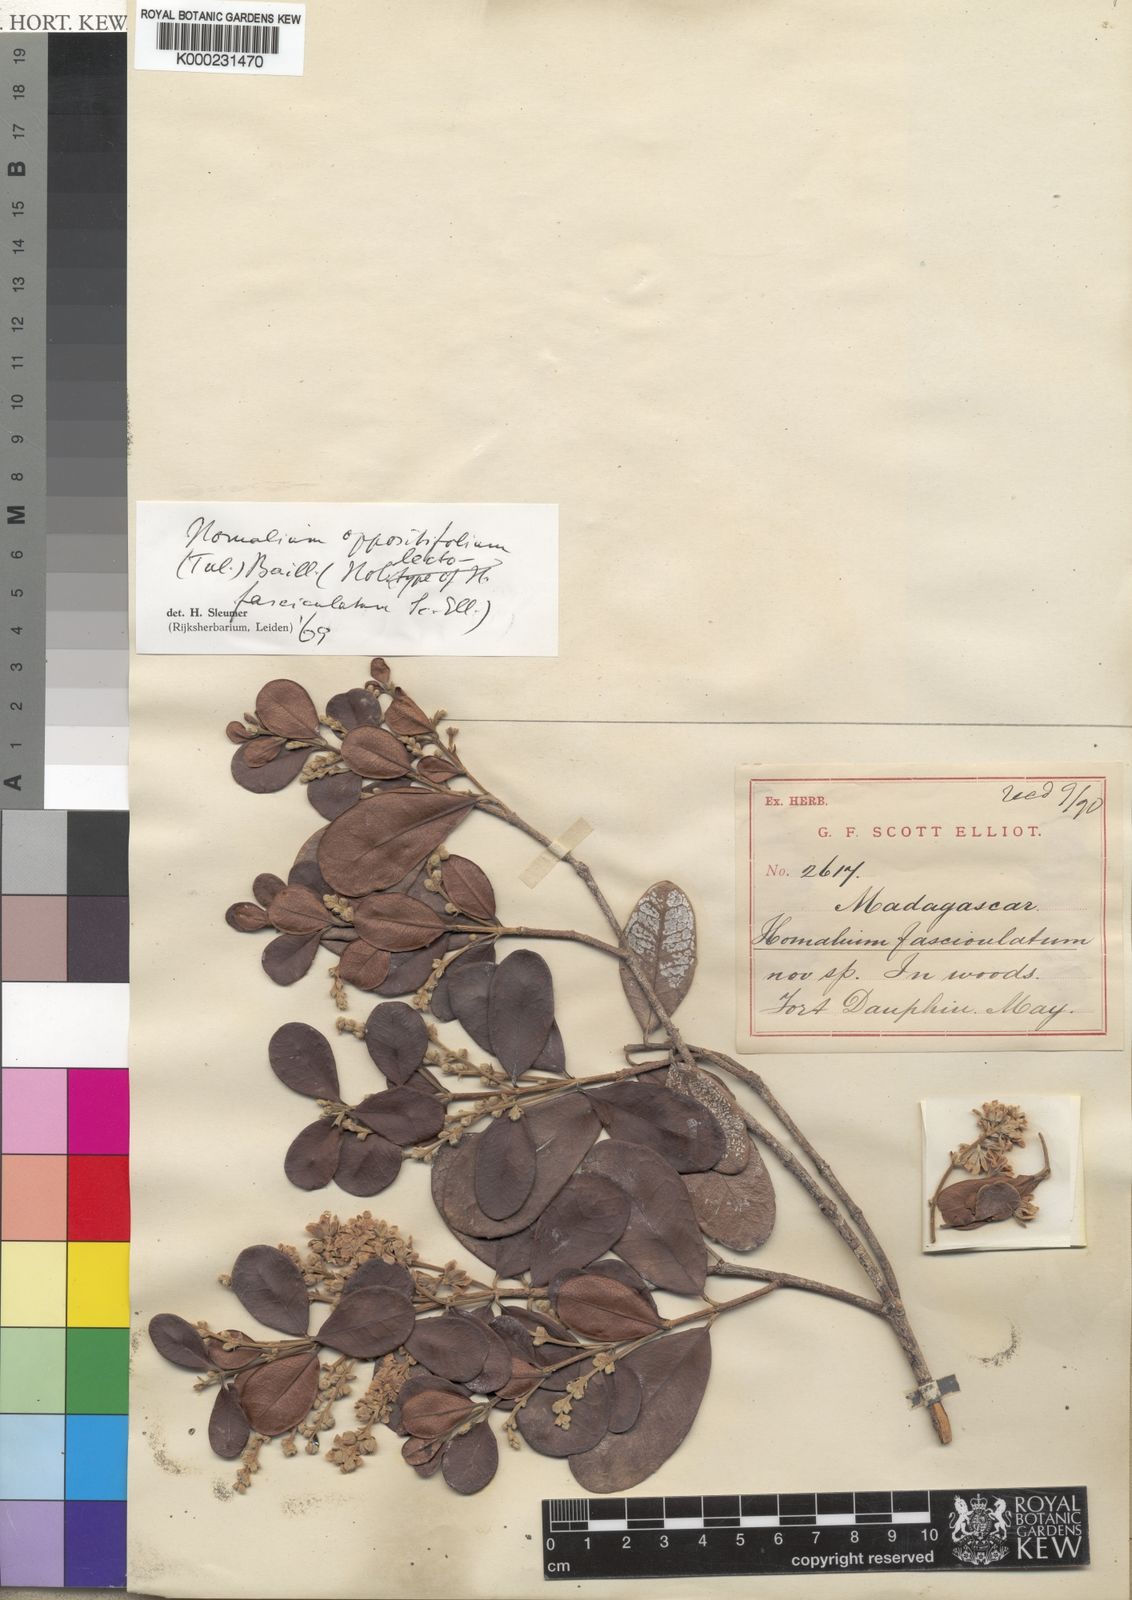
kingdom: Plantae
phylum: Tracheophyta
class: Magnoliopsida
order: Malpighiales
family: Salicaceae
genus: Homalium
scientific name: Homalium oppositifolium
